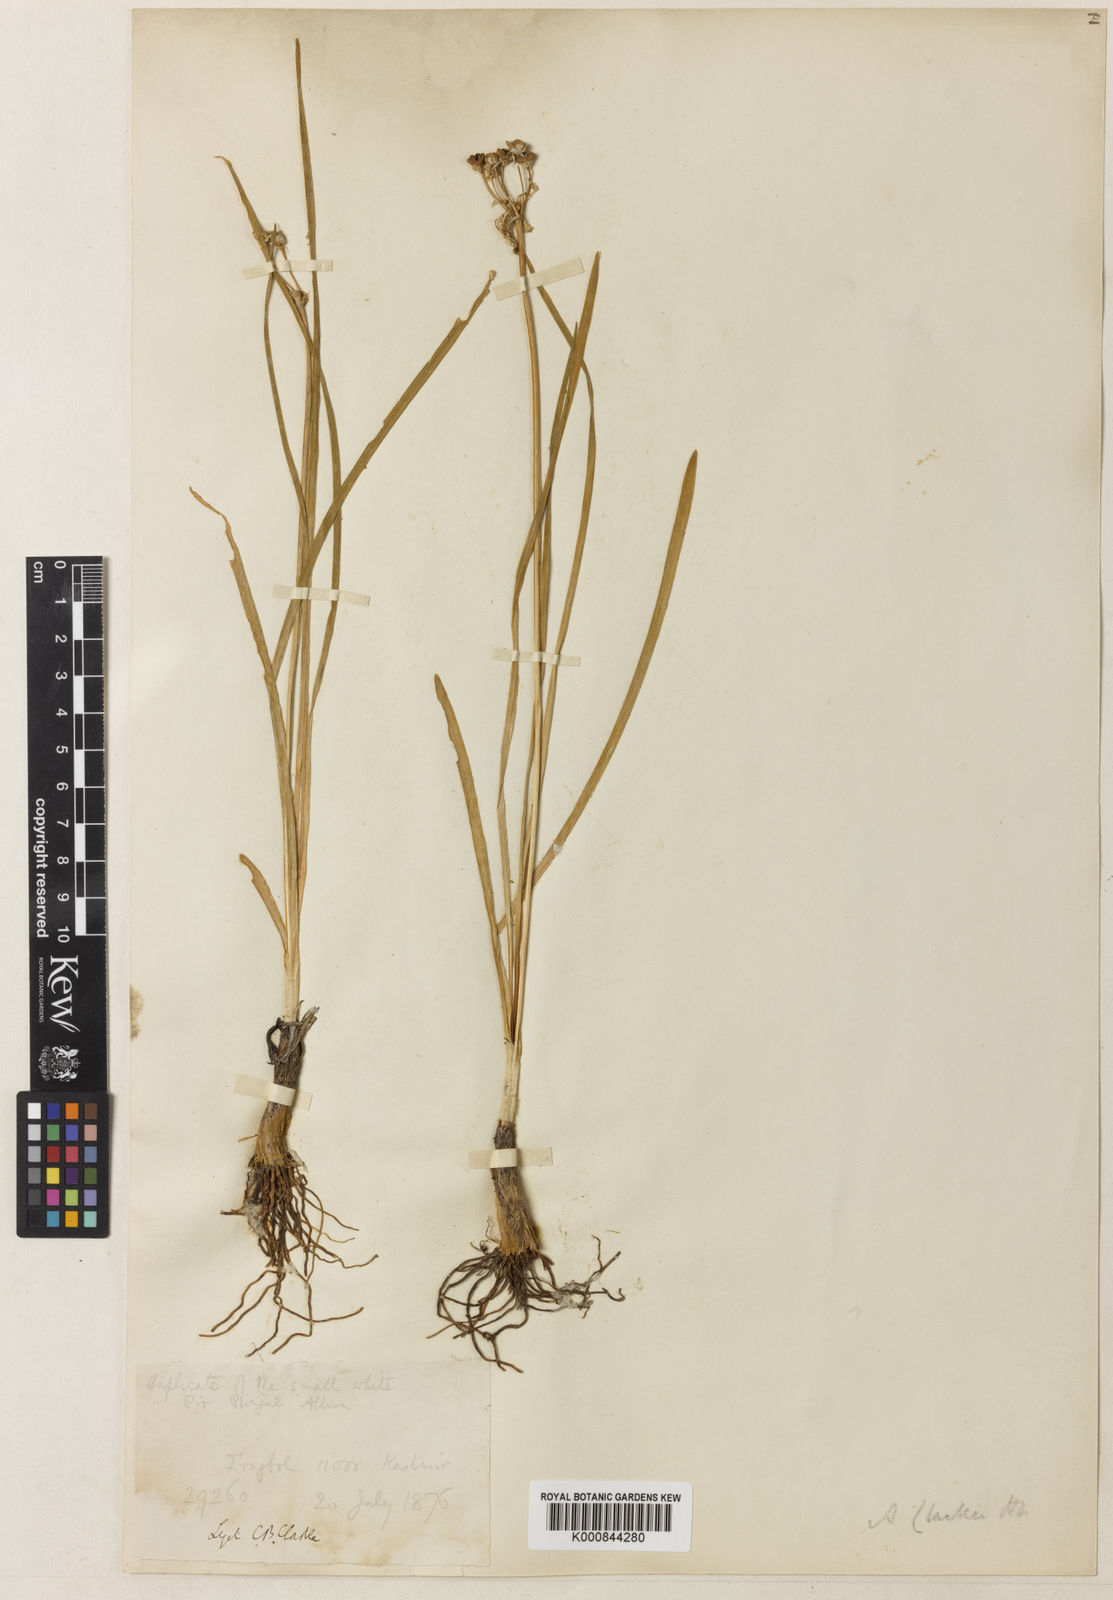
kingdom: Plantae
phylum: Tracheophyta
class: Liliopsida
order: Asparagales
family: Amaryllidaceae
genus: Allium
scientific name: Allium tuberosum
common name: Chinese chives
